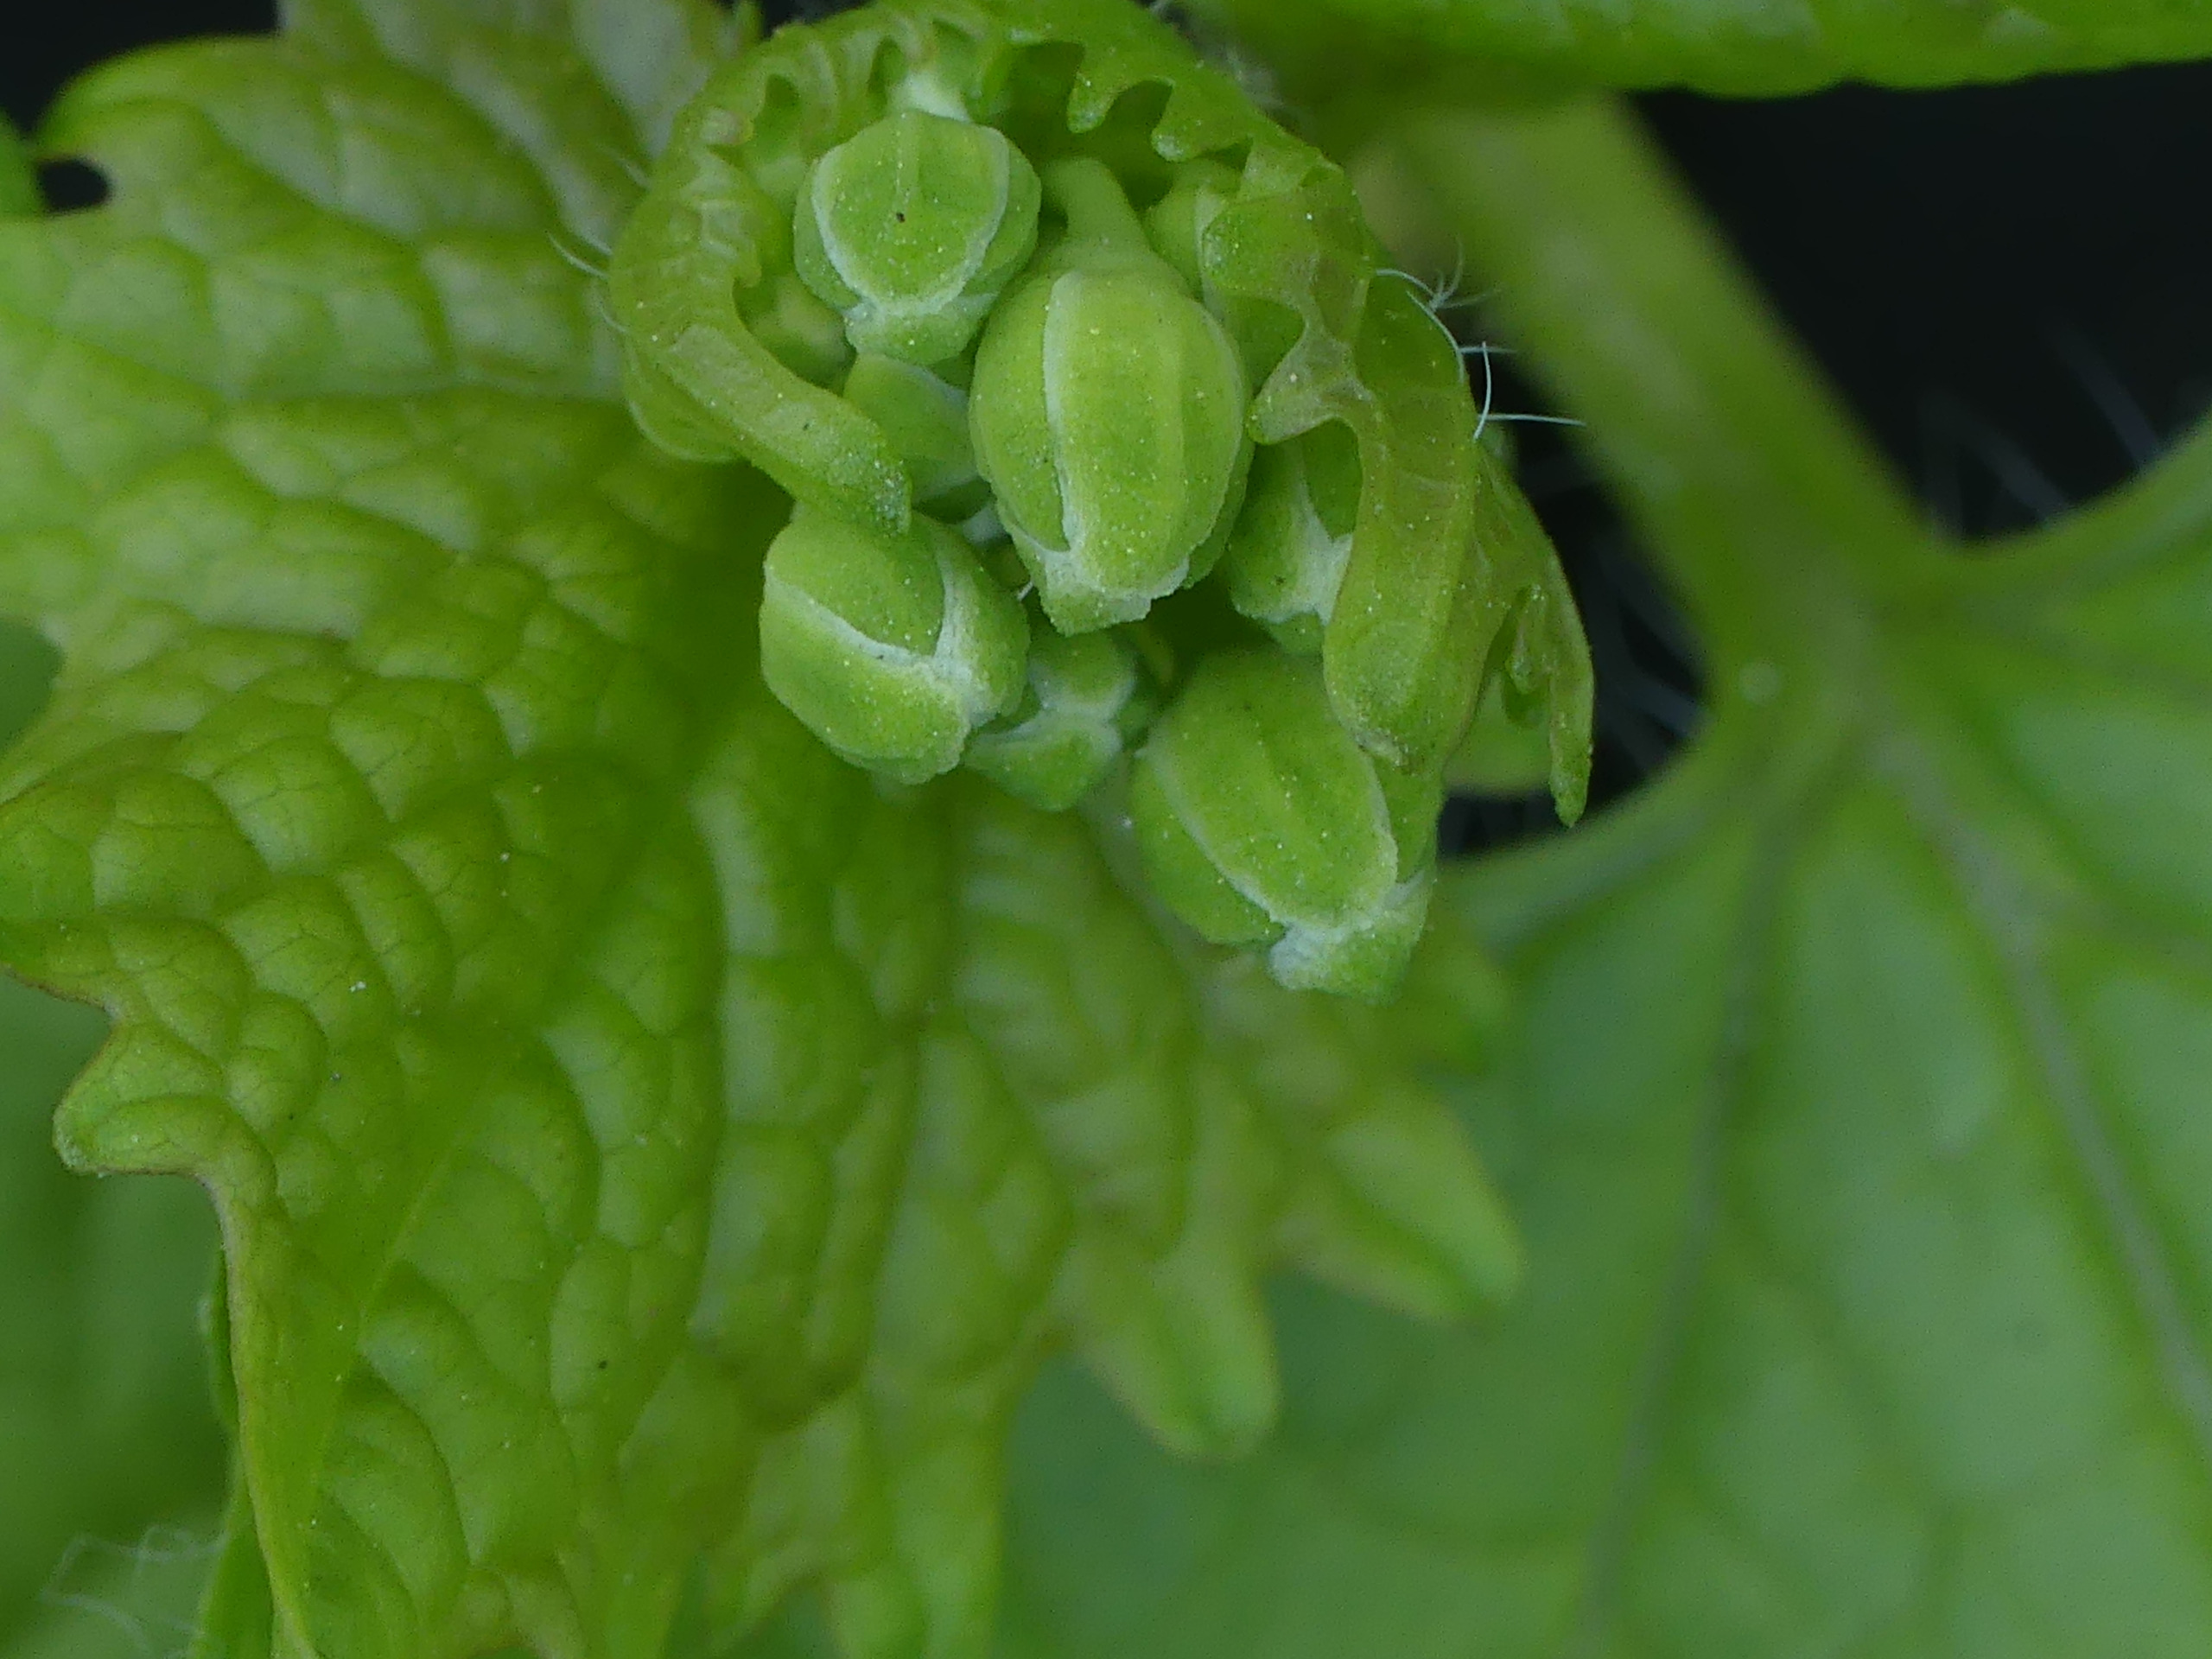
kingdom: Plantae
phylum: Tracheophyta
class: Magnoliopsida
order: Brassicales
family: Brassicaceae
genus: Alliaria
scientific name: Alliaria petiolata
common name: Løgkarse
